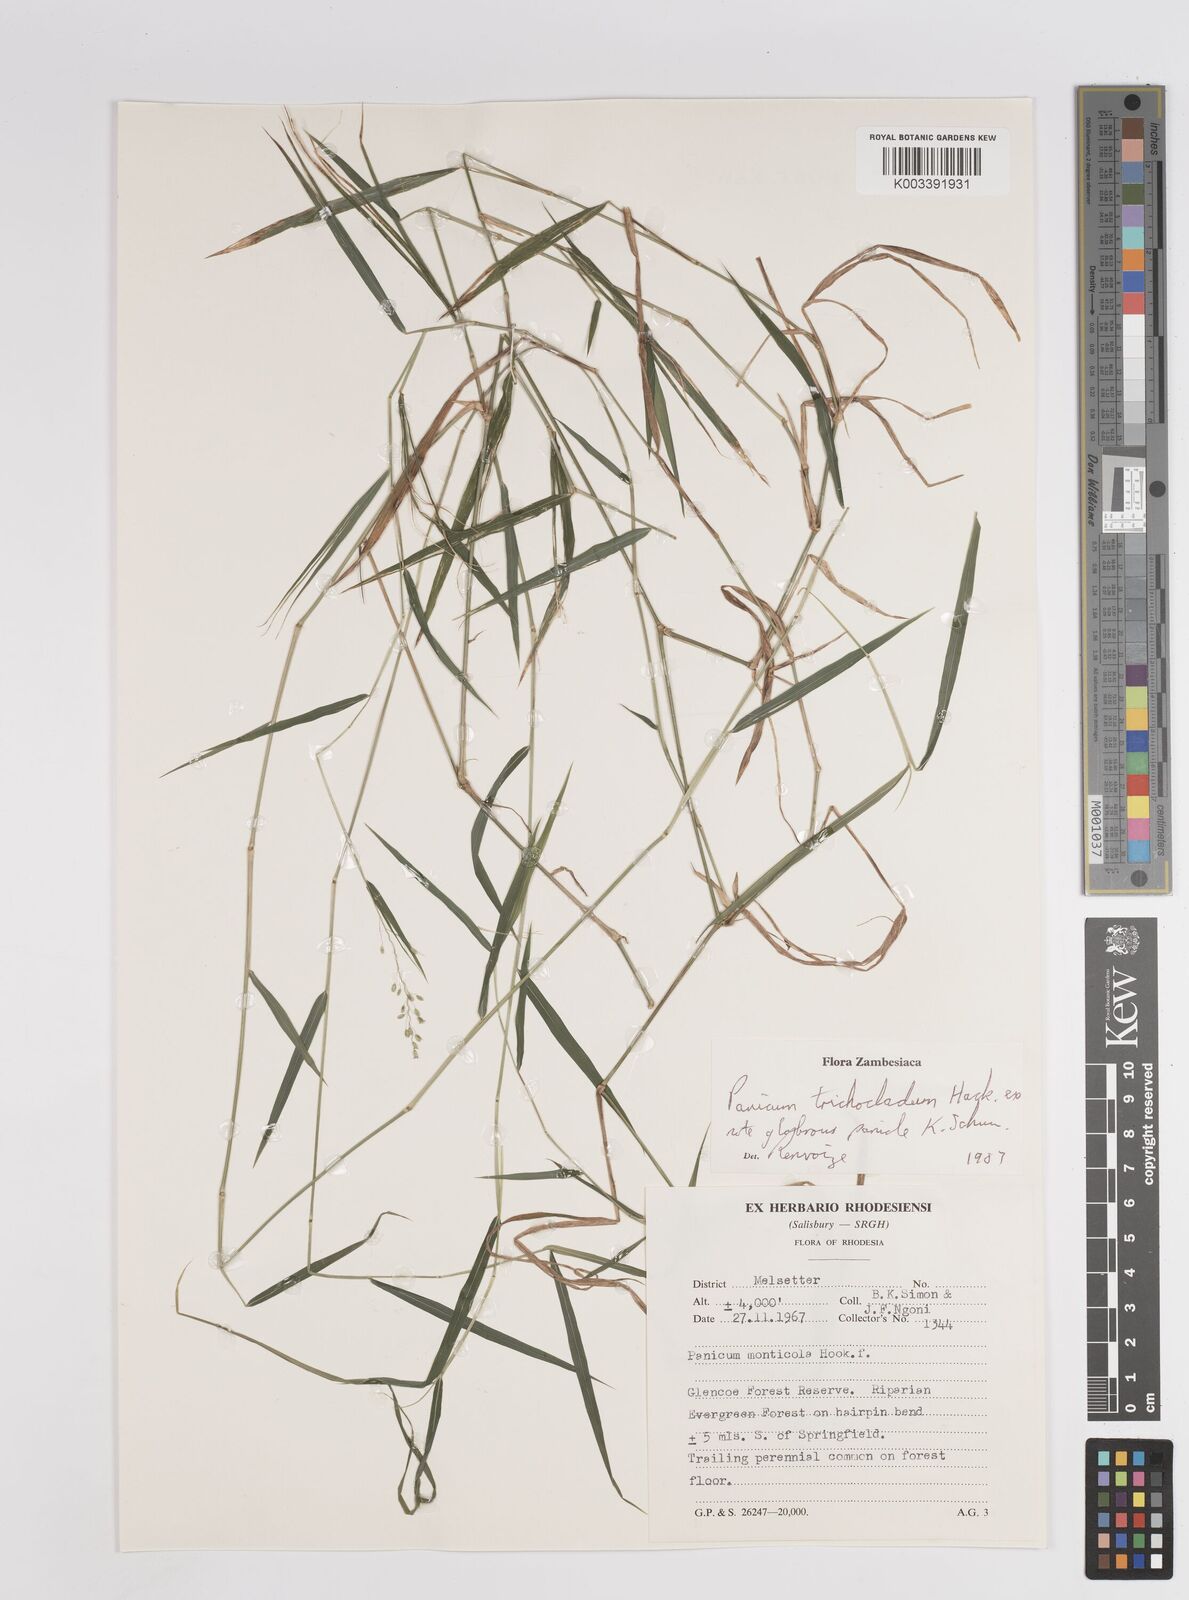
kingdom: Plantae
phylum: Tracheophyta
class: Liliopsida
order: Poales
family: Poaceae
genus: Panicum
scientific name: Panicum trichocladum
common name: Donkey grass
